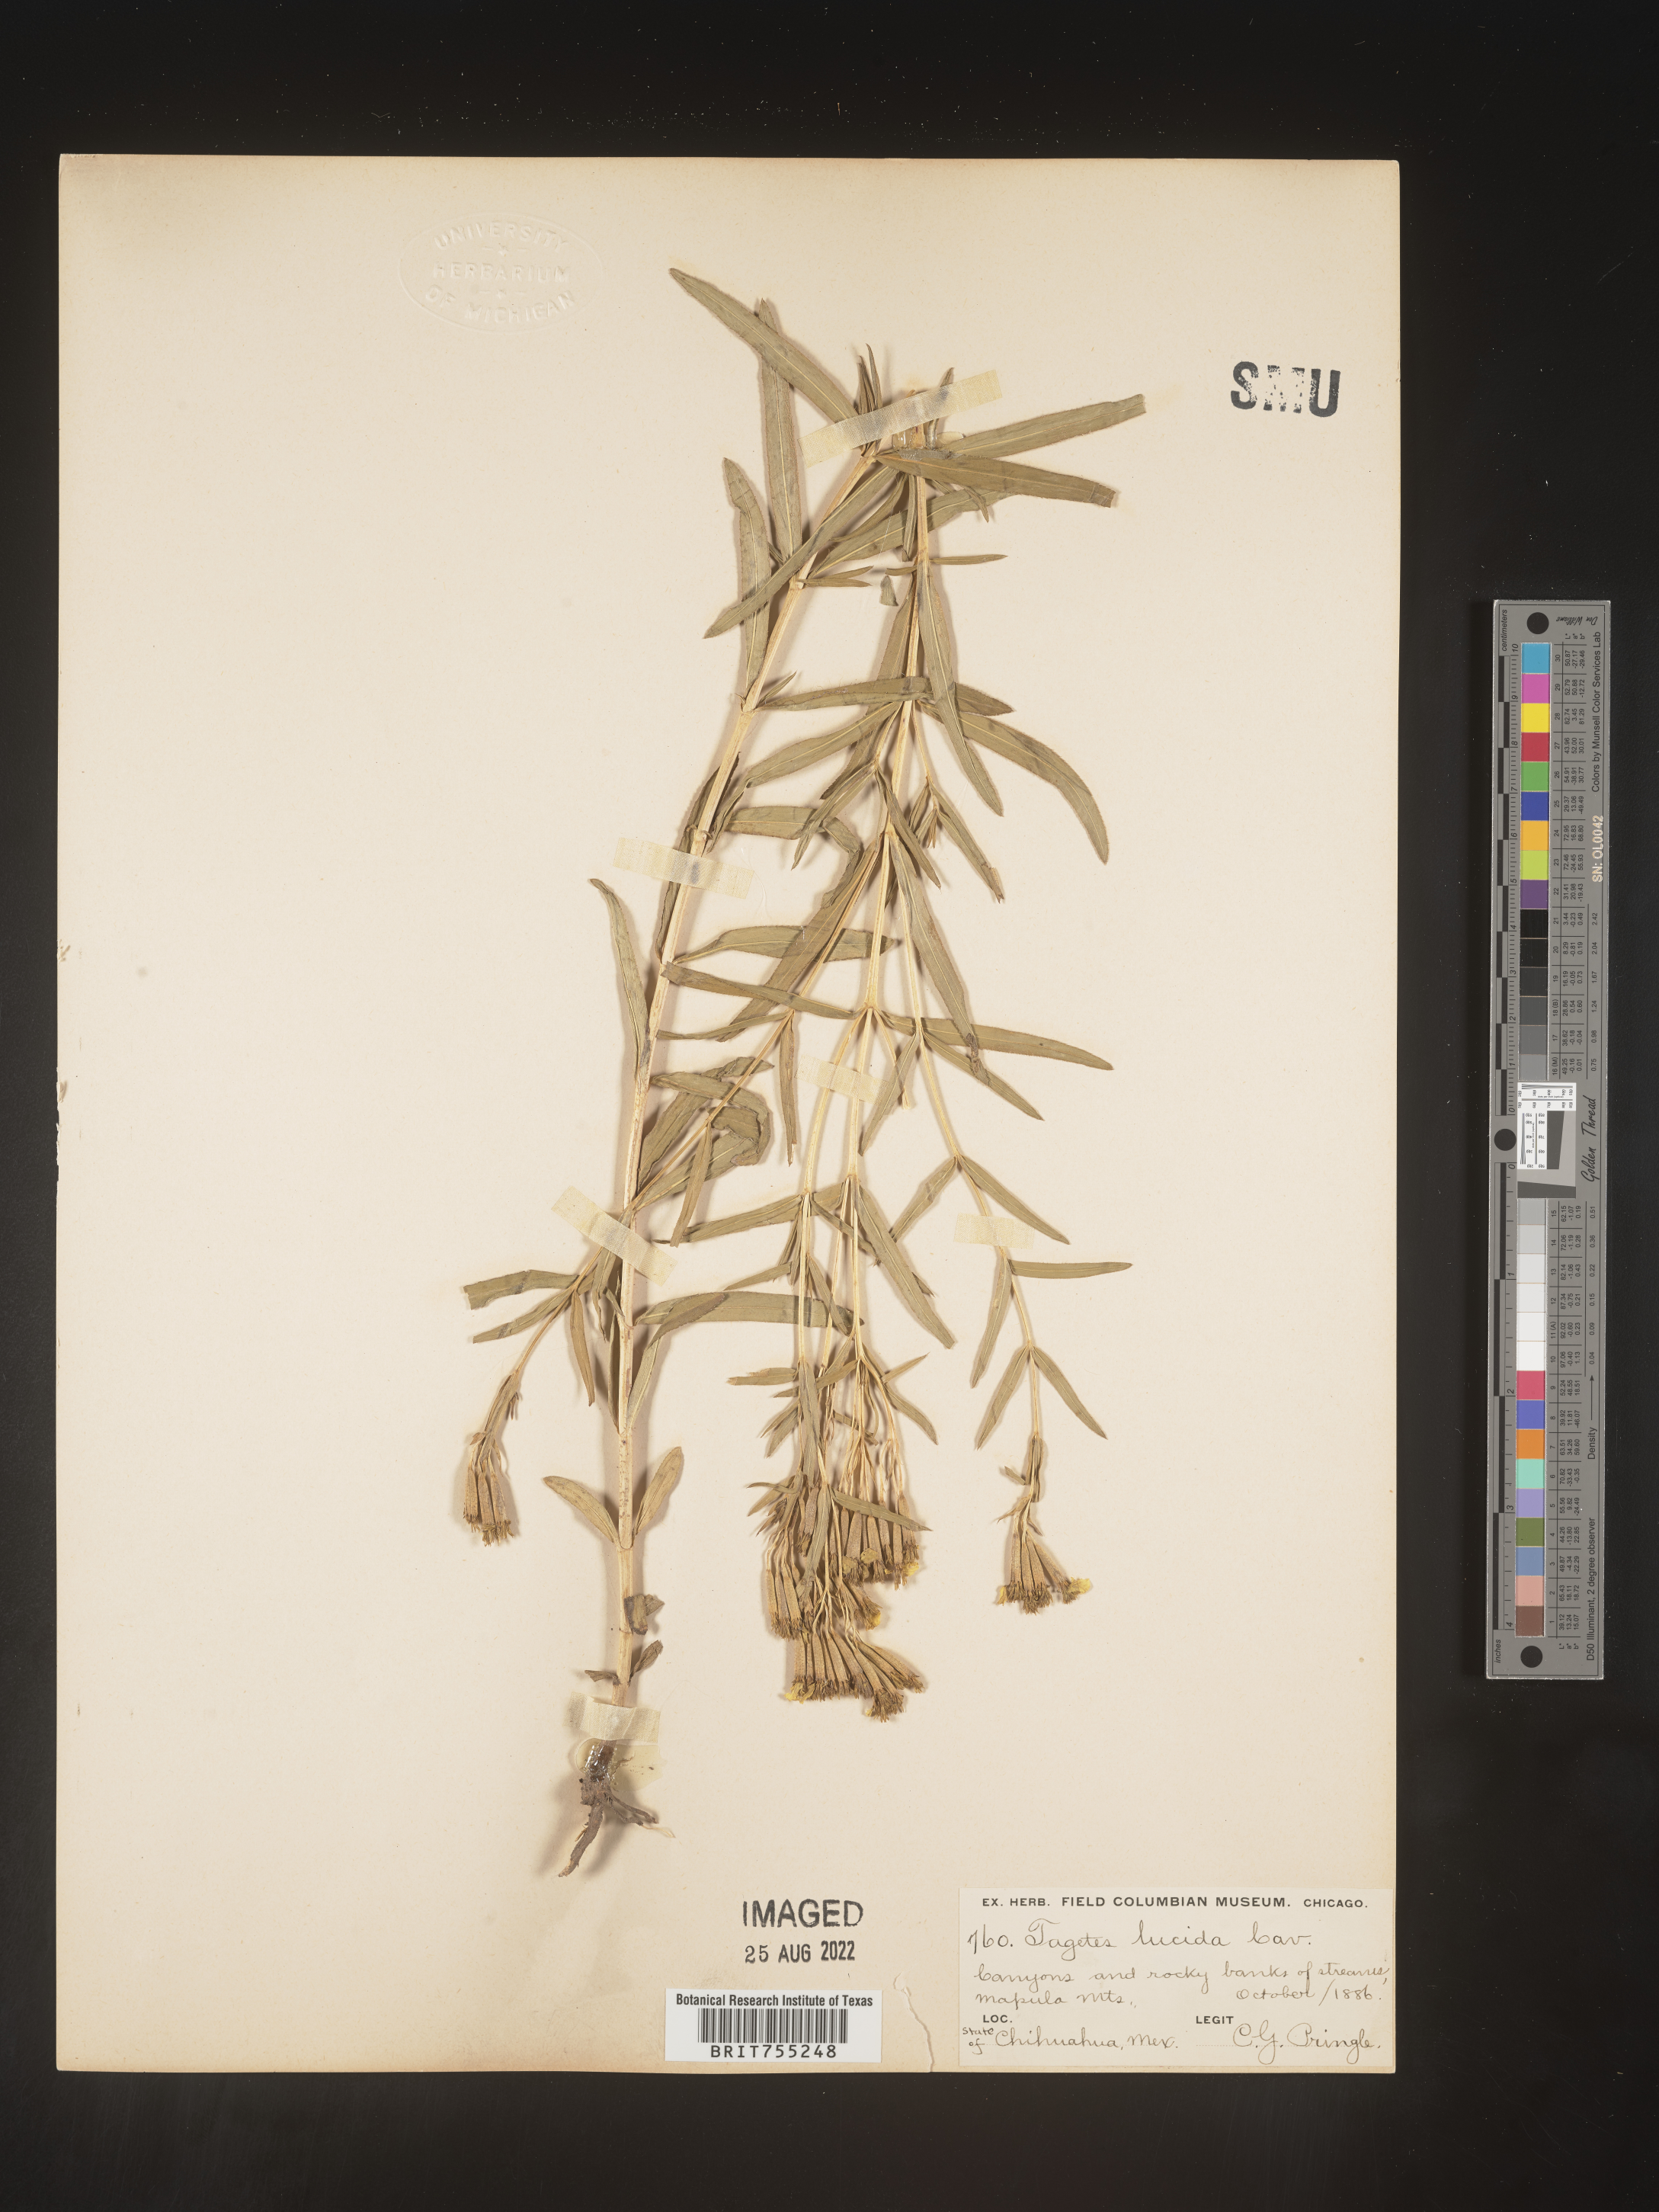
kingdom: Plantae
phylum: Tracheophyta
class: Magnoliopsida
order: Asterales
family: Asteraceae
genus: Tagetes
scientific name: Tagetes lucida
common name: Sweetscented marigold
